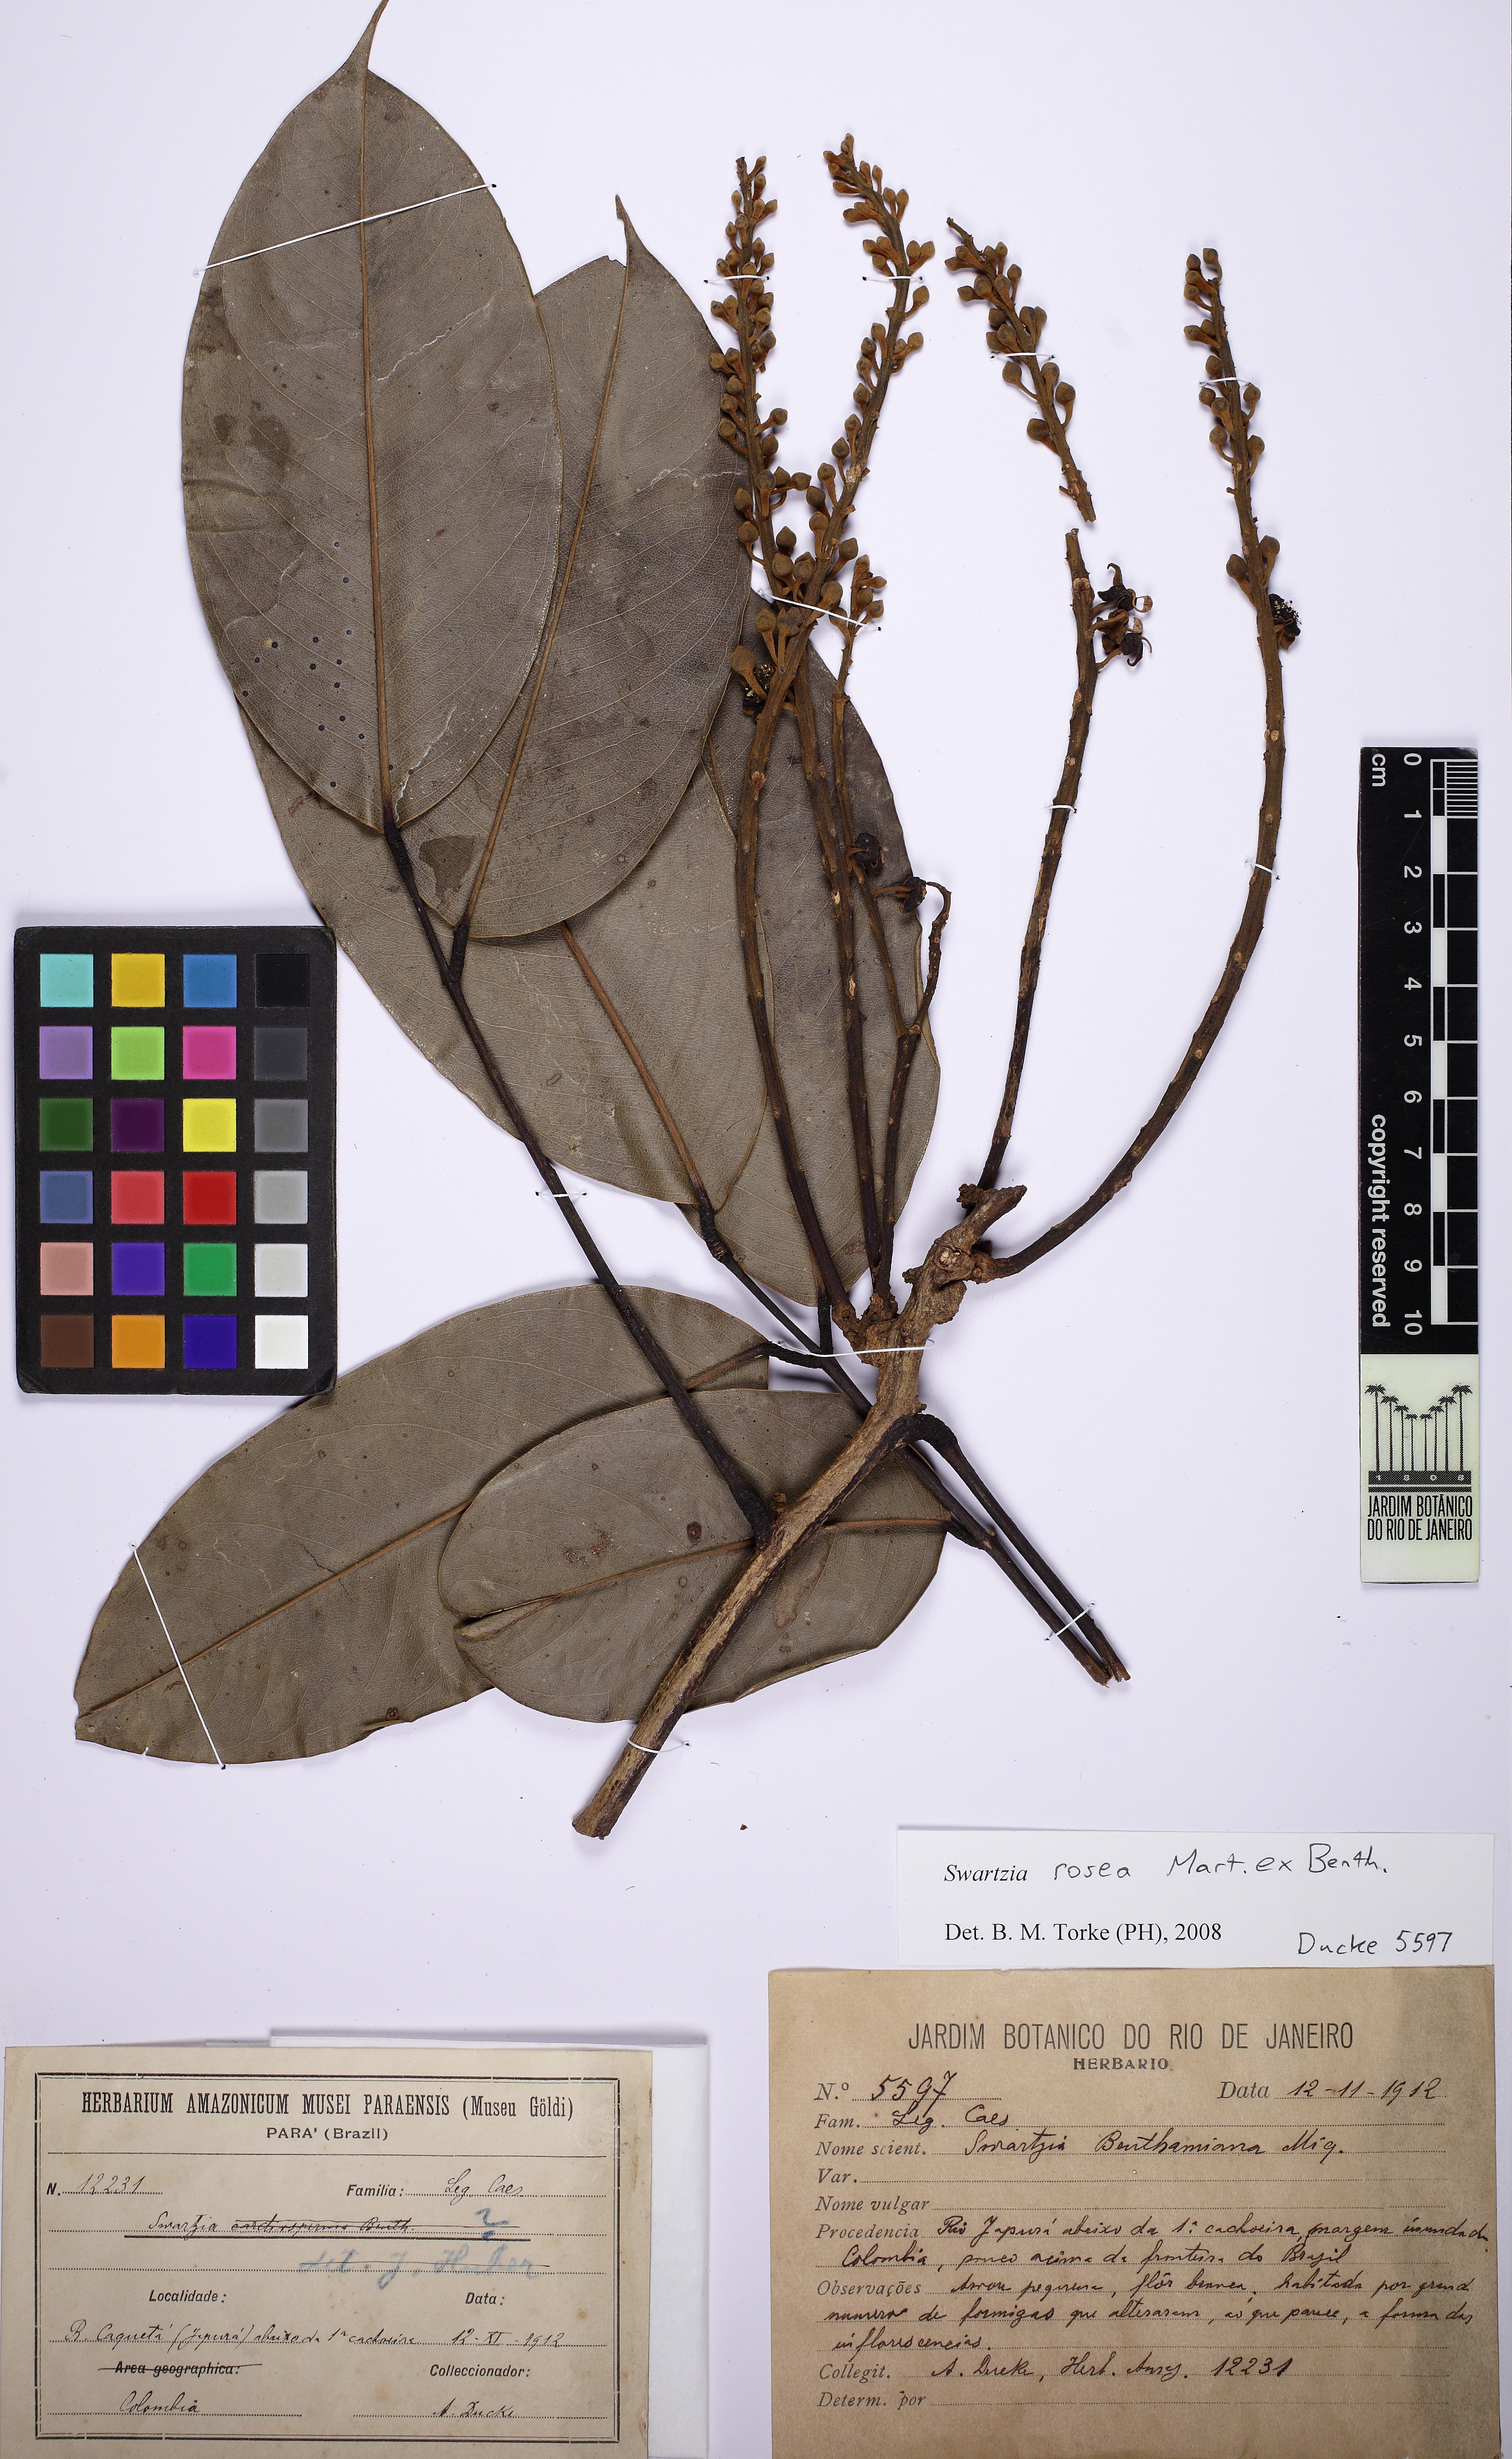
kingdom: Plantae
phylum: Tracheophyta
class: Magnoliopsida
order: Fabales
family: Fabaceae
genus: Swartzia
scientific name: Swartzia rosea
